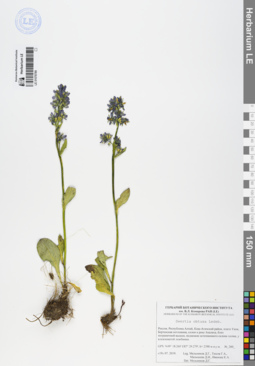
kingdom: Plantae
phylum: Tracheophyta
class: Magnoliopsida
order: Gentianales
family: Gentianaceae
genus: Swertia
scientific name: Swertia obtusa
